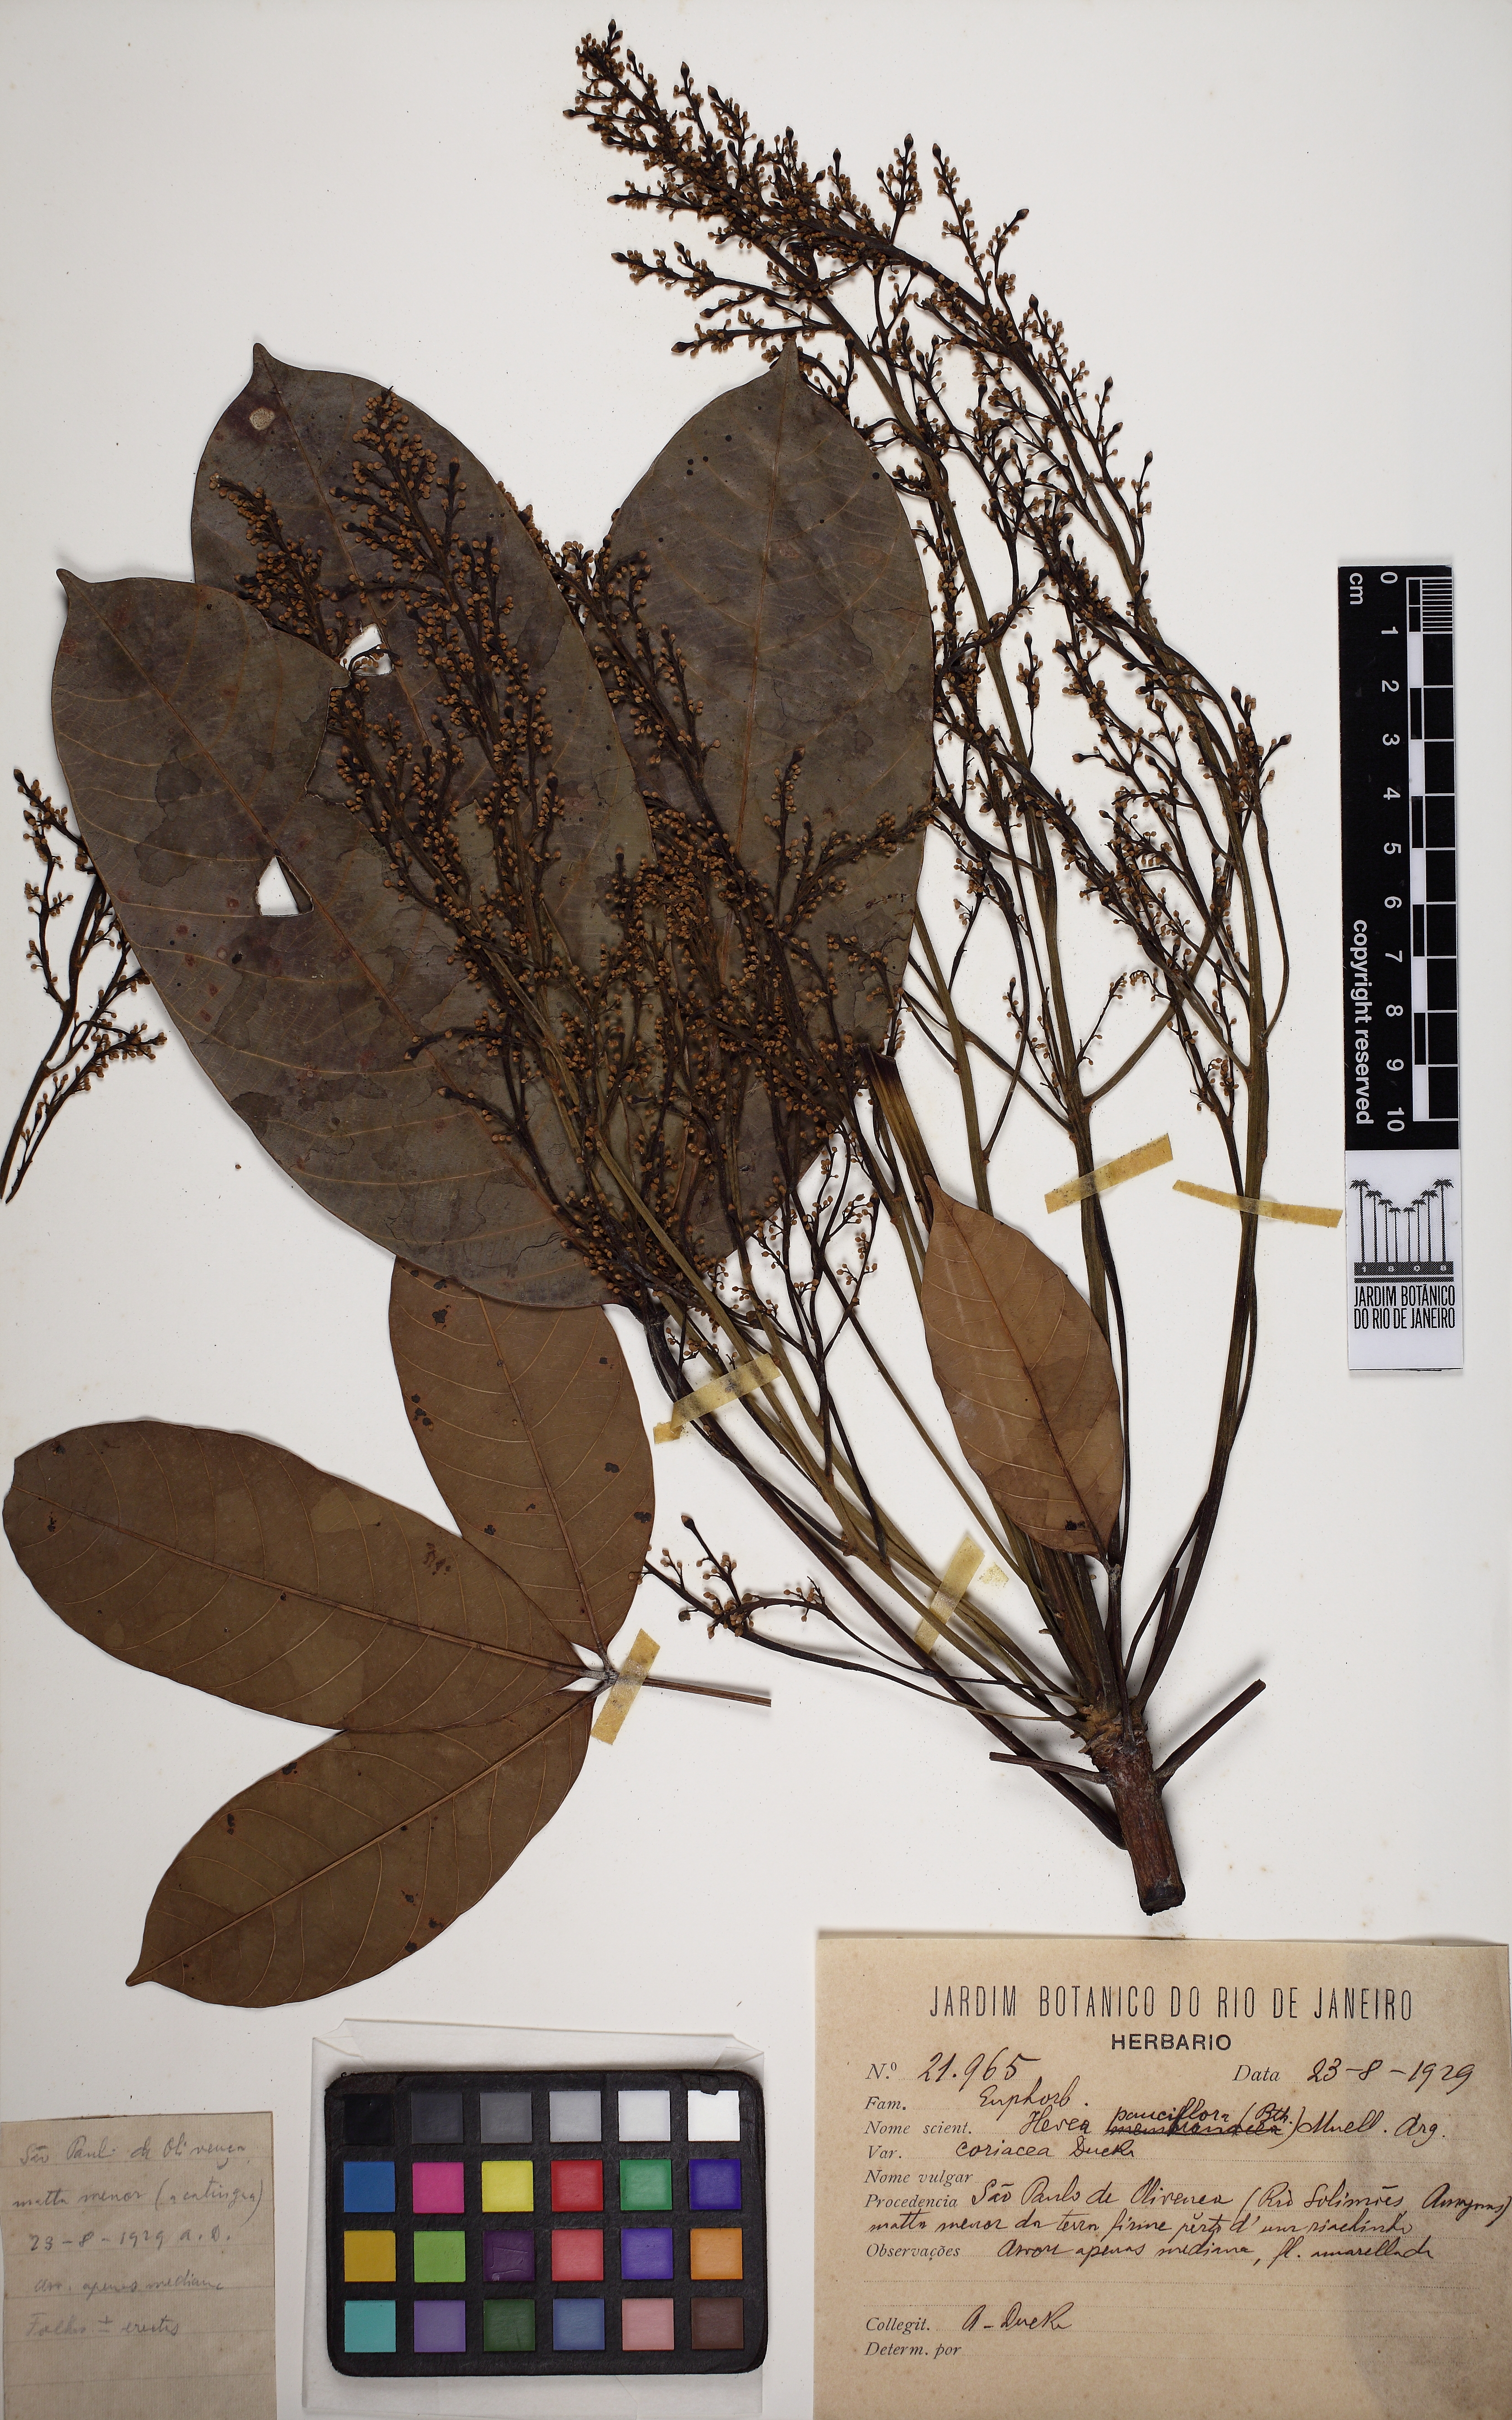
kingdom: Plantae
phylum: Tracheophyta
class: Magnoliopsida
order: Malpighiales
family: Euphorbiaceae
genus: Hevea
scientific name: Hevea pauciflora
